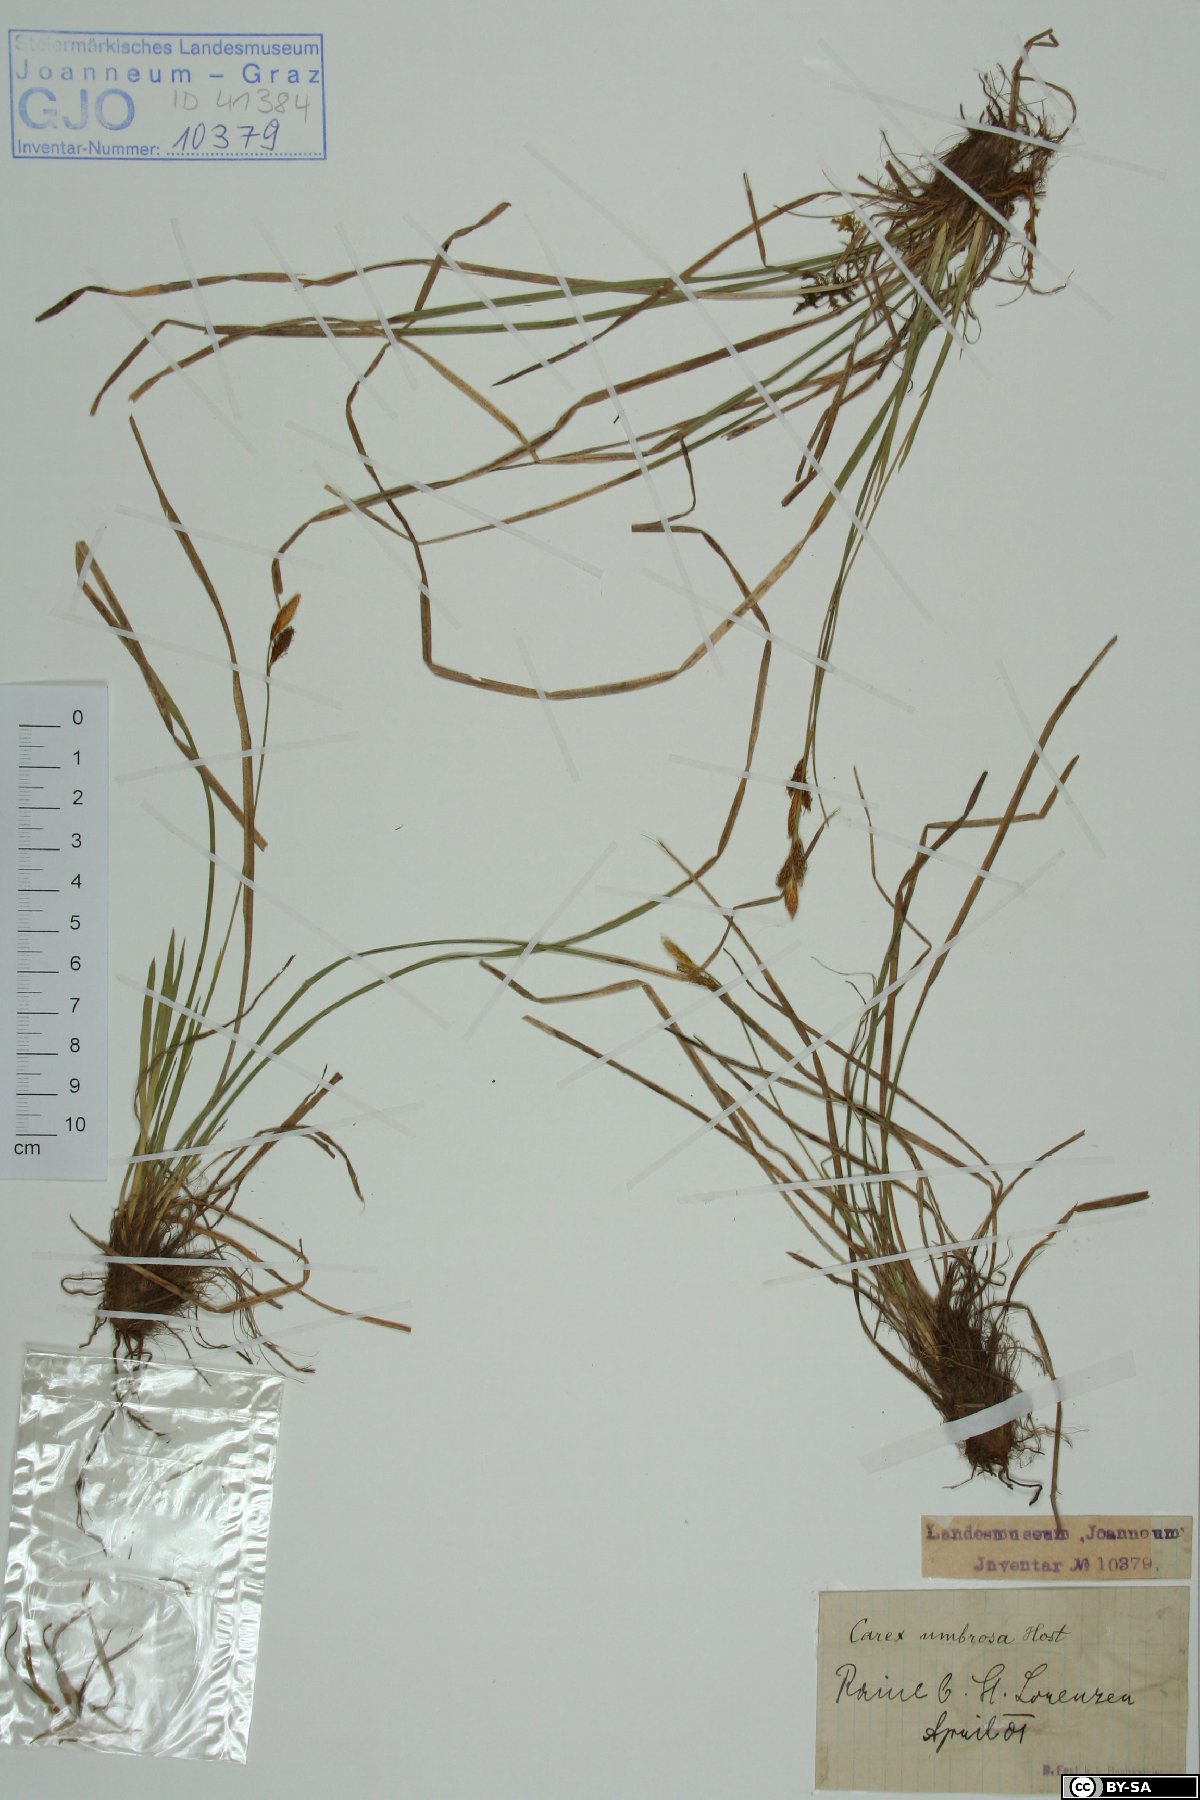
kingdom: Plantae
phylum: Tracheophyta
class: Liliopsida
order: Poales
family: Cyperaceae
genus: Carex
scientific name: Carex umbrosa
